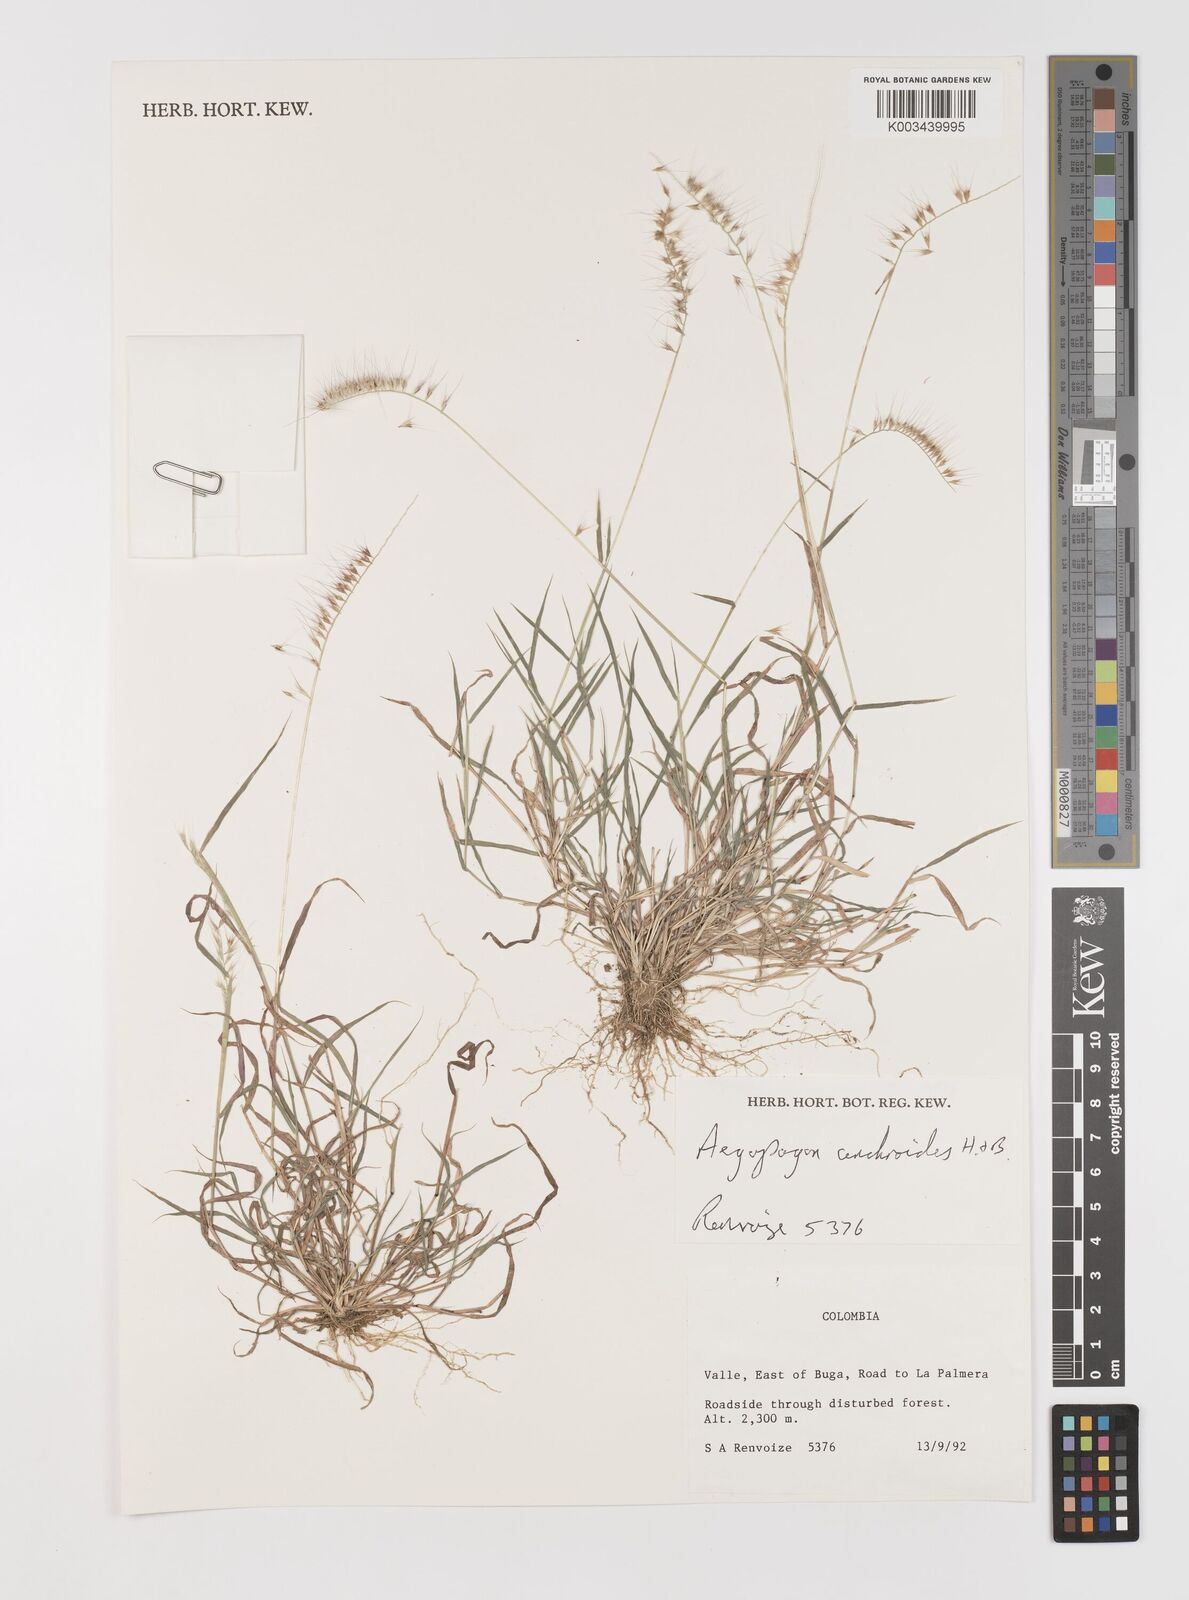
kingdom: Plantae
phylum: Tracheophyta
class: Liliopsida
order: Poales
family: Poaceae
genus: Muhlenbergia
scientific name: Muhlenbergia cenchroides
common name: Relaxgrass
